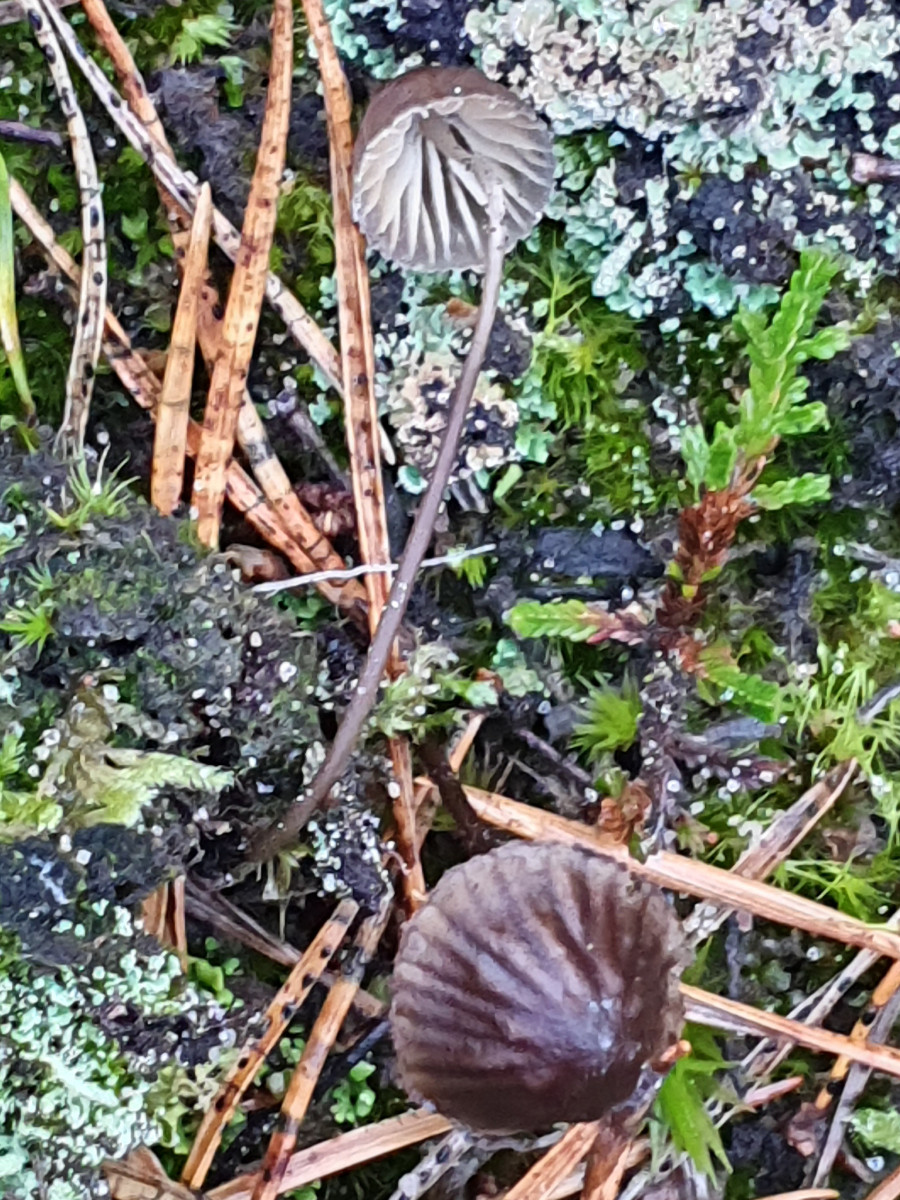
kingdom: Fungi
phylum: Basidiomycota
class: Agaricomycetes
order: Agaricales
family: Mycenaceae
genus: Mycena
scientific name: Mycena galopus
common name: hvidmælket huesvamp
